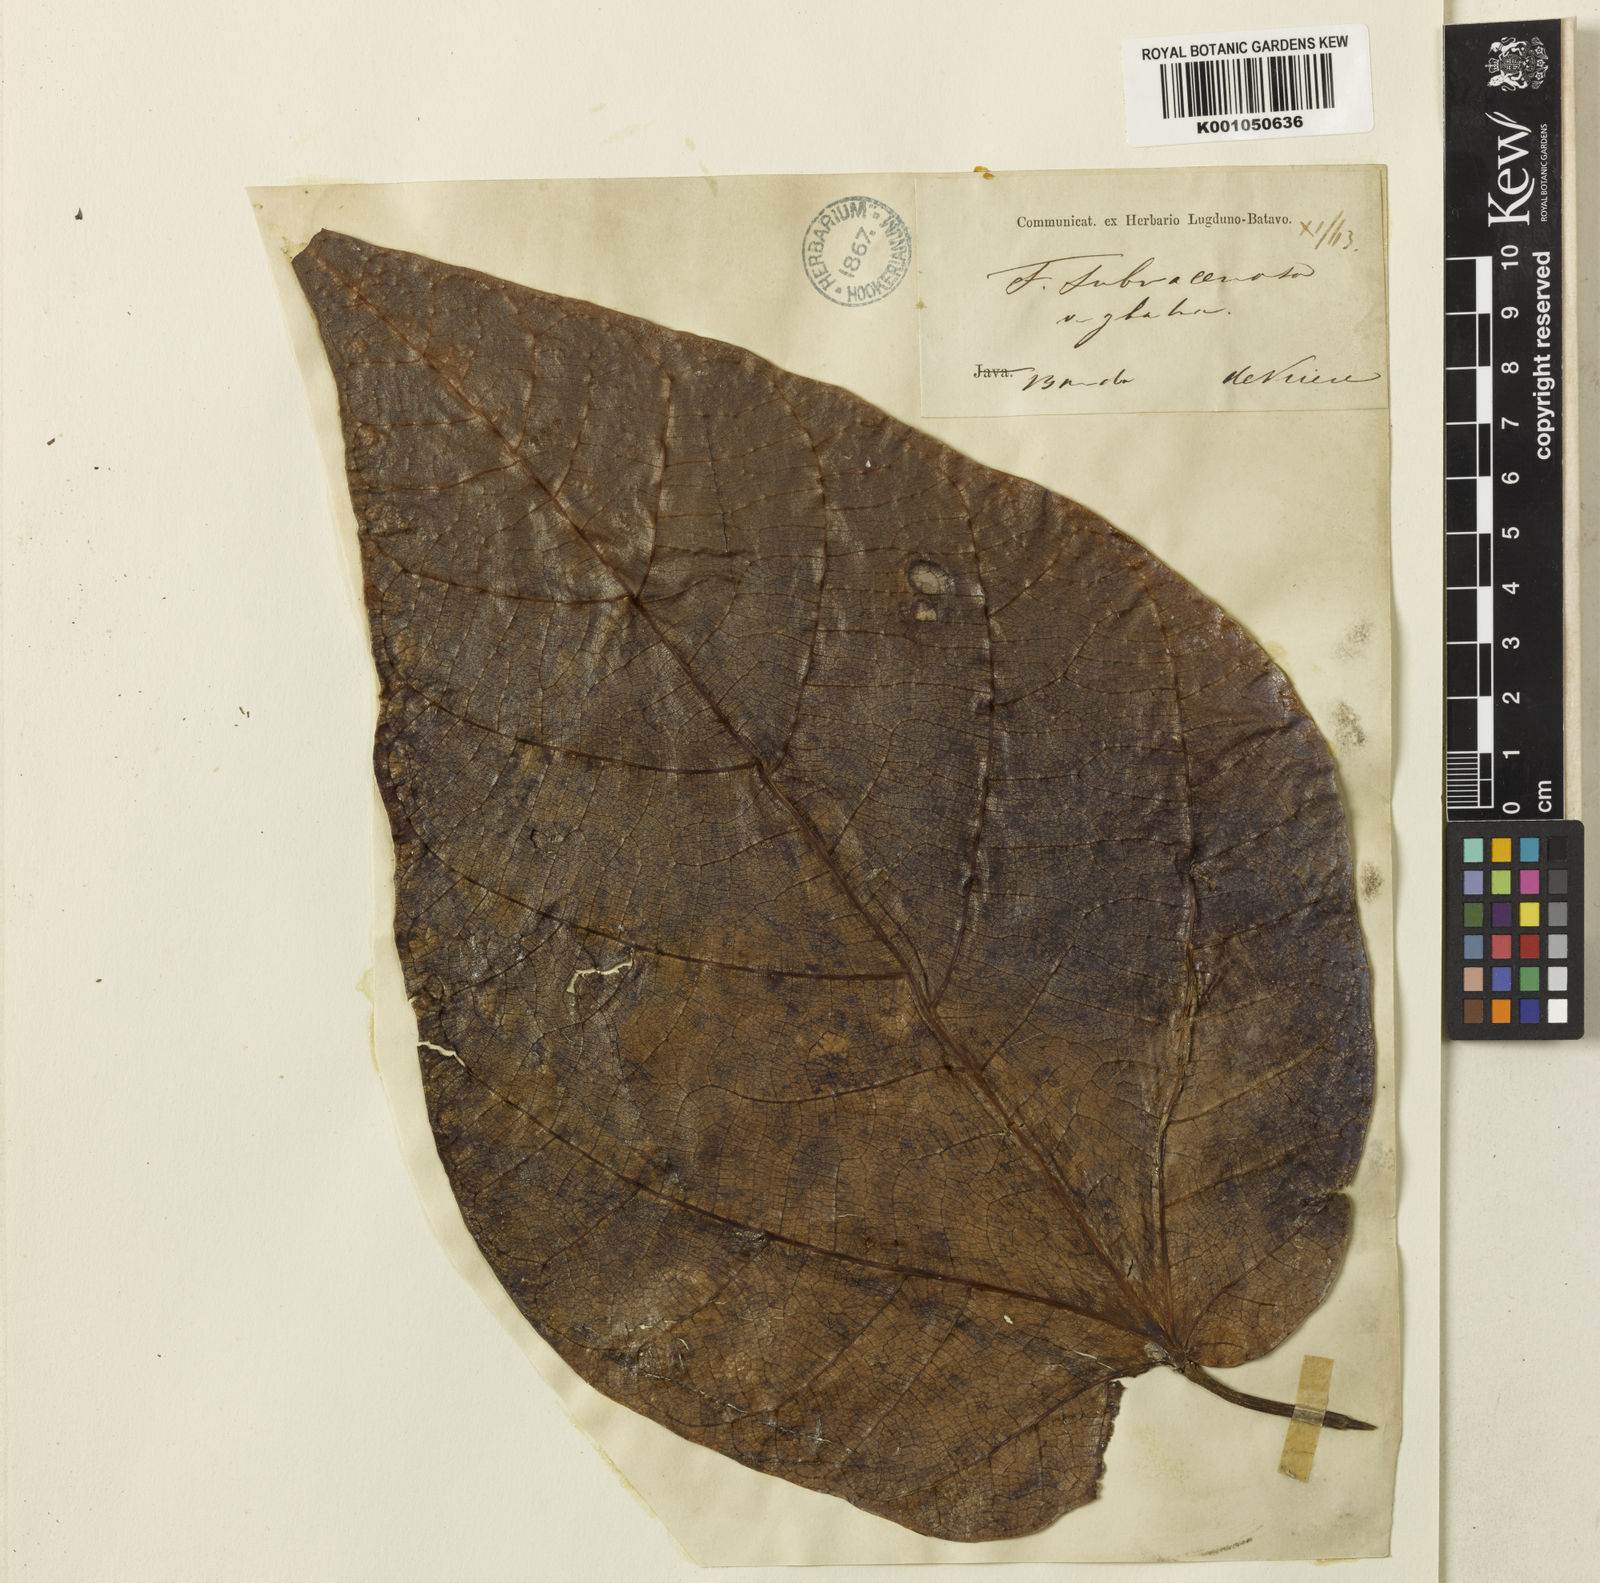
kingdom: Plantae
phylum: Tracheophyta
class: Magnoliopsida
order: Rosales
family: Moraceae
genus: Ficus
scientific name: Ficus racemifera
